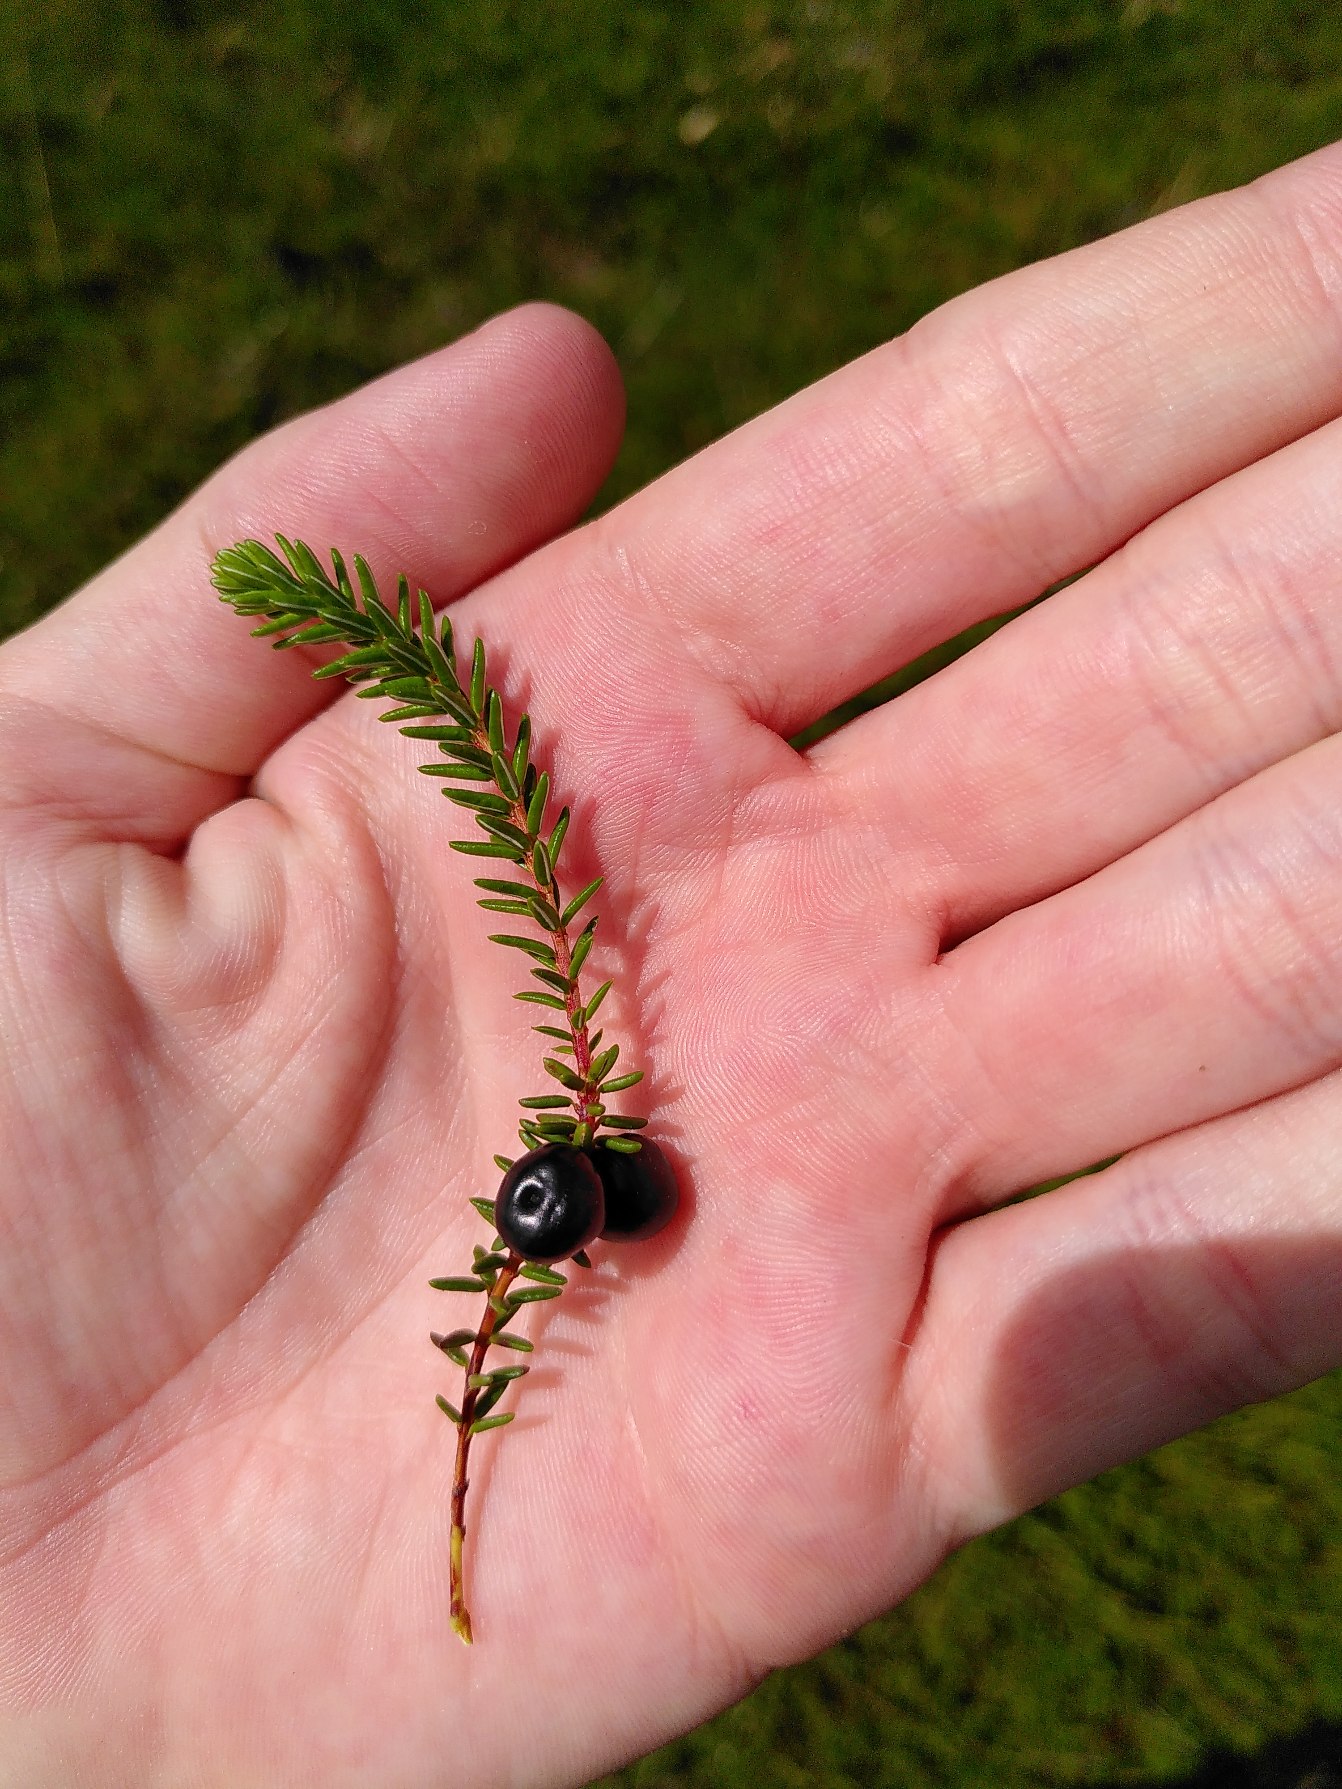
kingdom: Plantae
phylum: Tracheophyta
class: Magnoliopsida
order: Ericales
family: Ericaceae
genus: Empetrum
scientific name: Empetrum nigrum
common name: Revling
